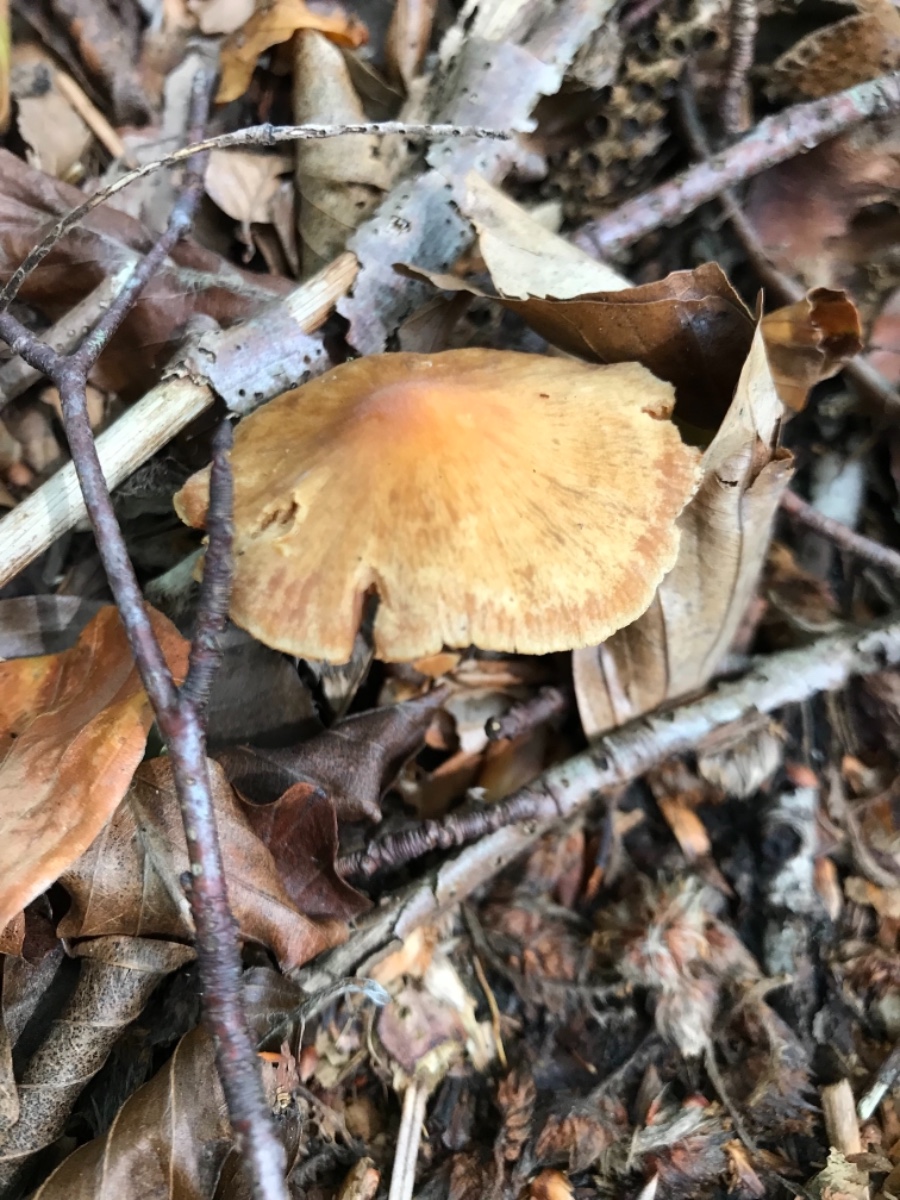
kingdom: Fungi
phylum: Basidiomycota
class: Agaricomycetes
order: Agaricales
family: Cortinariaceae
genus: Cortinarius
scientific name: Cortinarius
